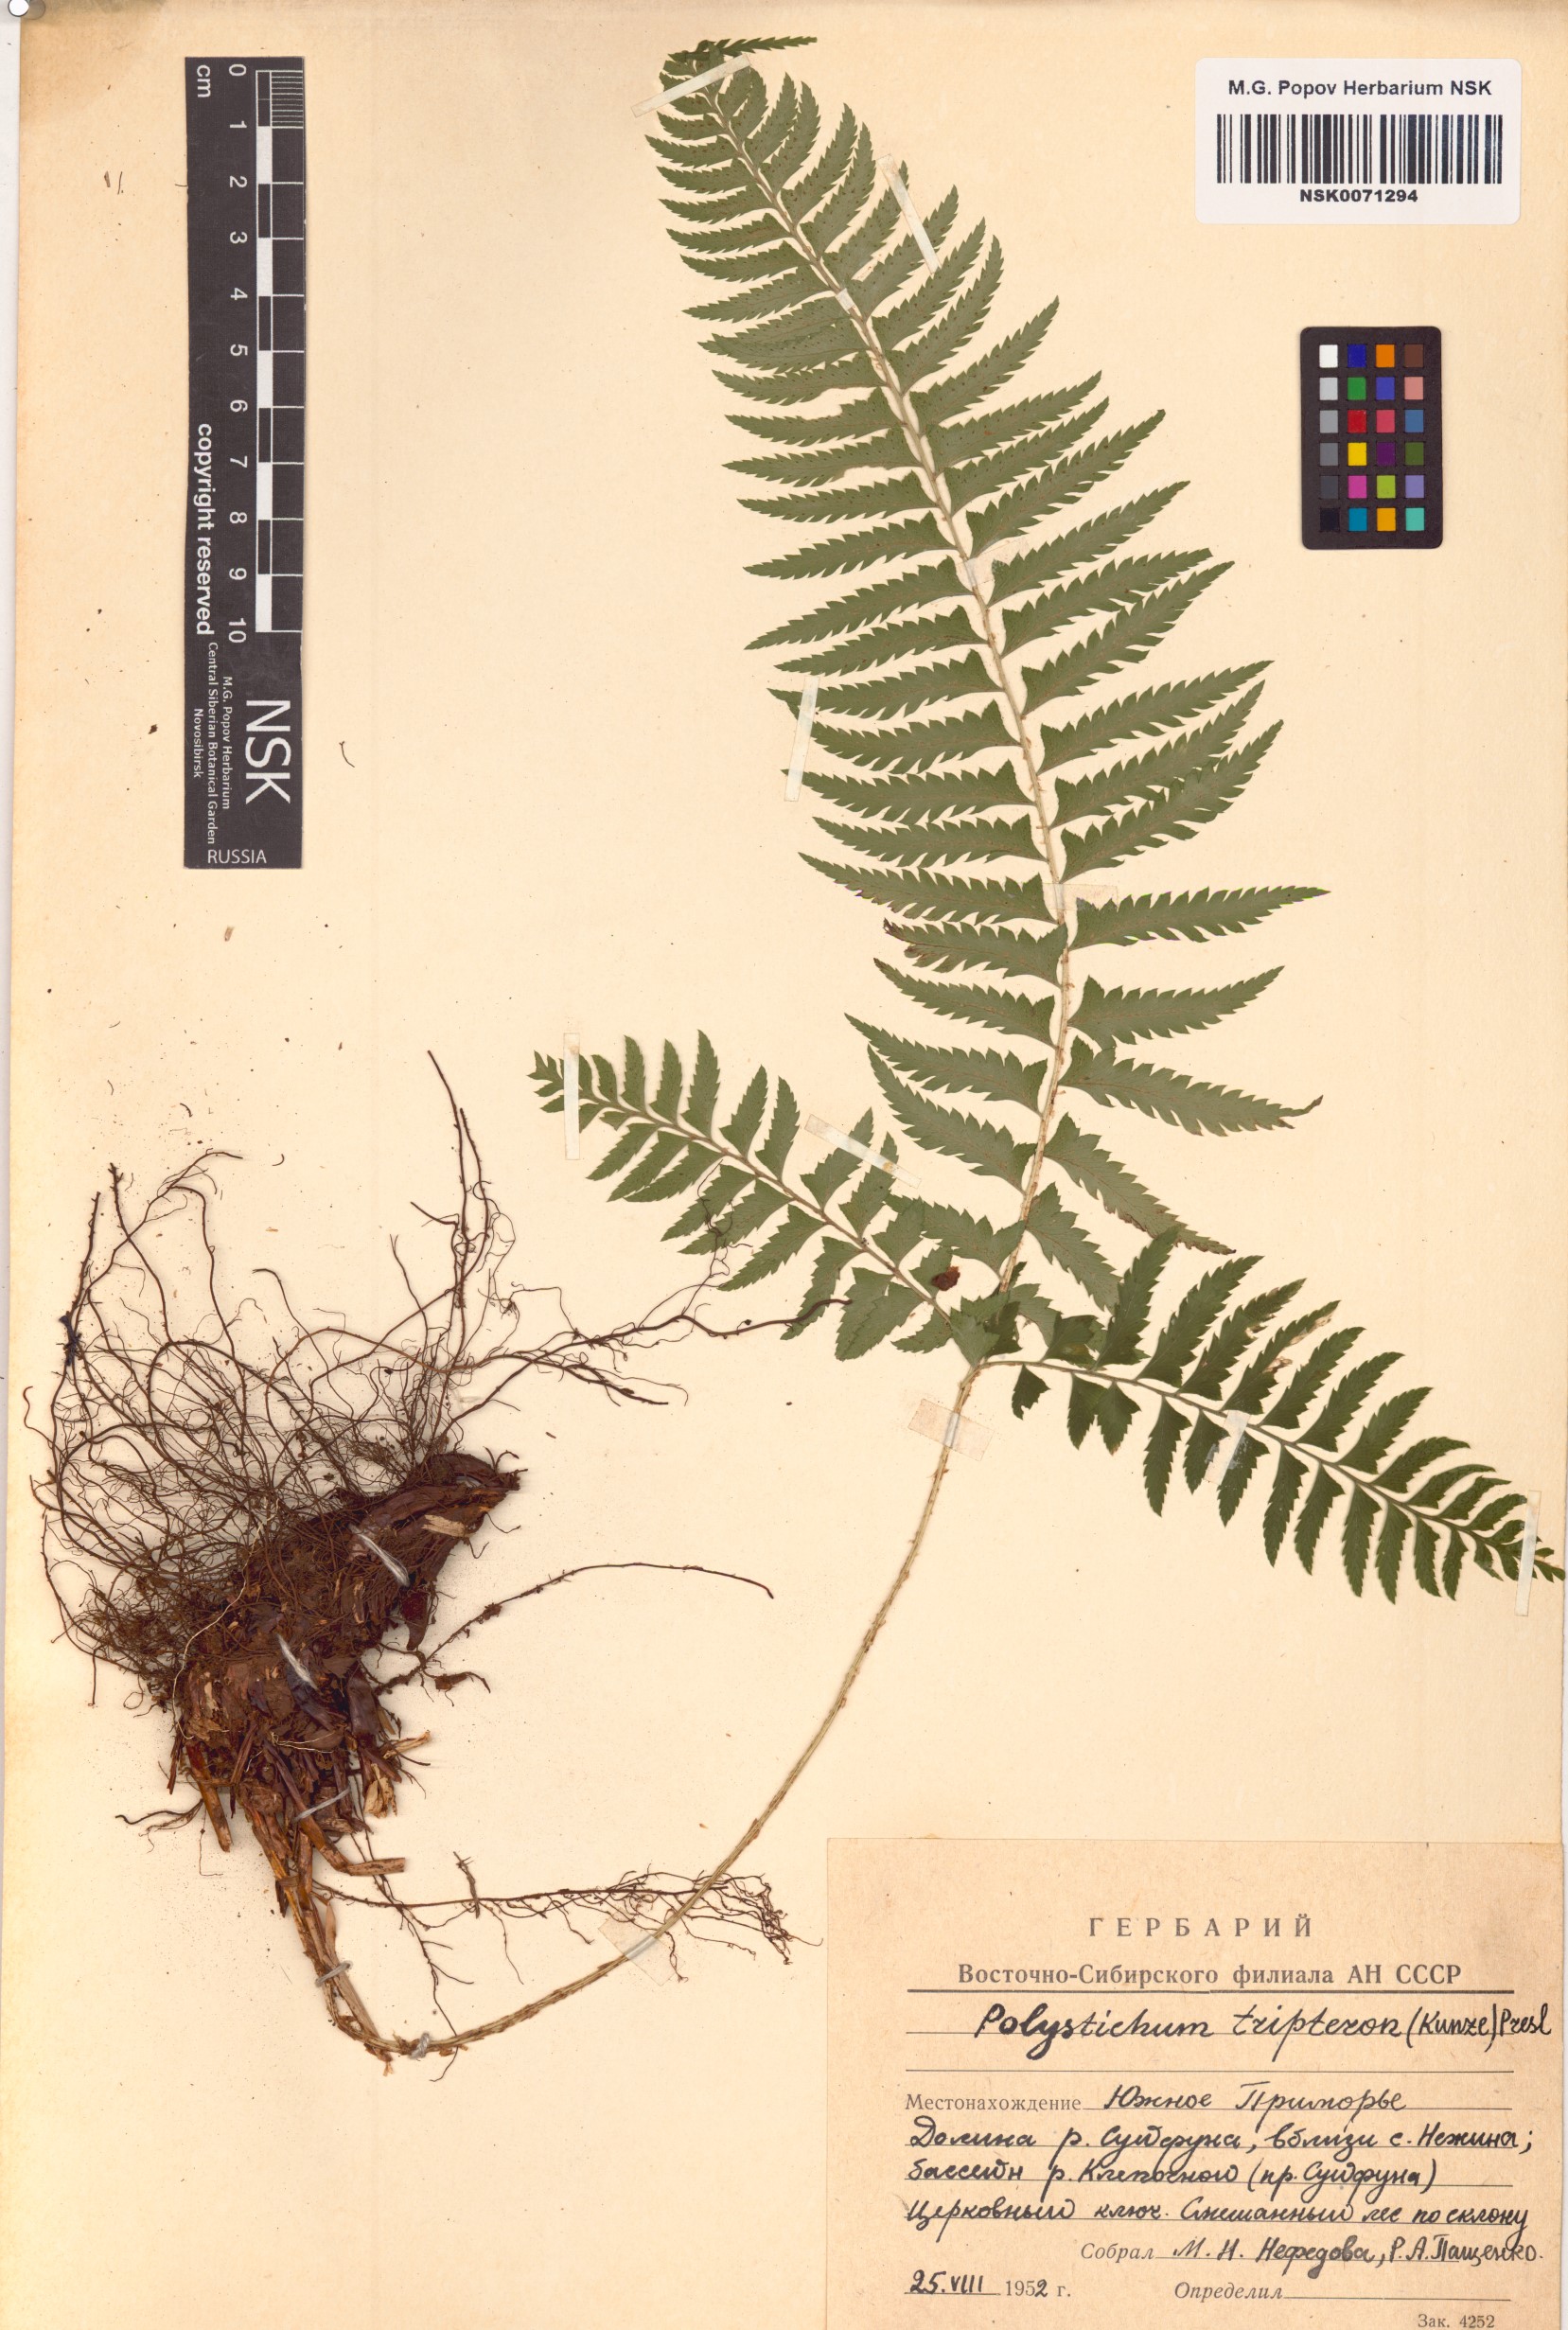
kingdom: Plantae
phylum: Tracheophyta
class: Polypodiopsida
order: Polypodiales
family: Dryopteridaceae
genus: Polystichum
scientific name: Polystichum tripteron
